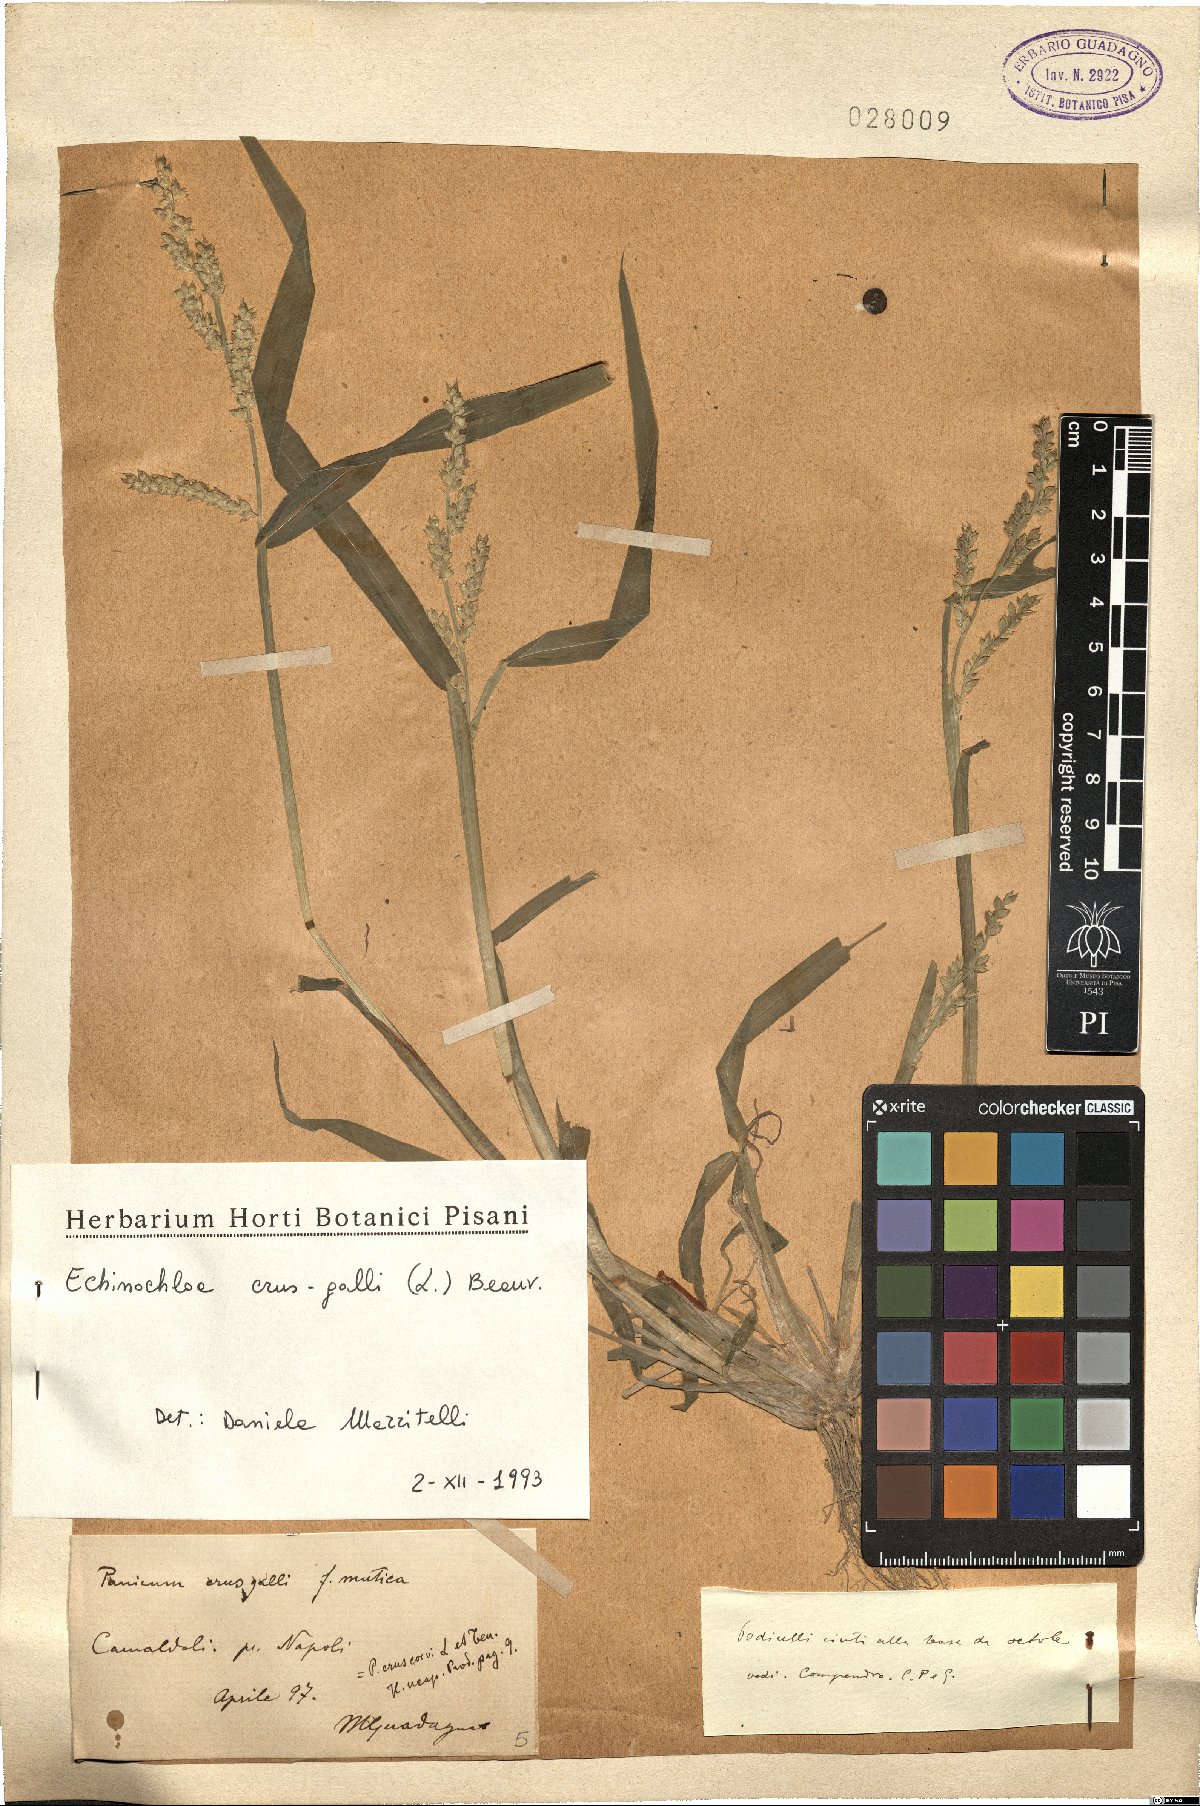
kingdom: Plantae
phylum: Tracheophyta
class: Liliopsida
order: Poales
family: Poaceae
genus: Echinochloa
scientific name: Echinochloa crus-galli
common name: Cockspur
